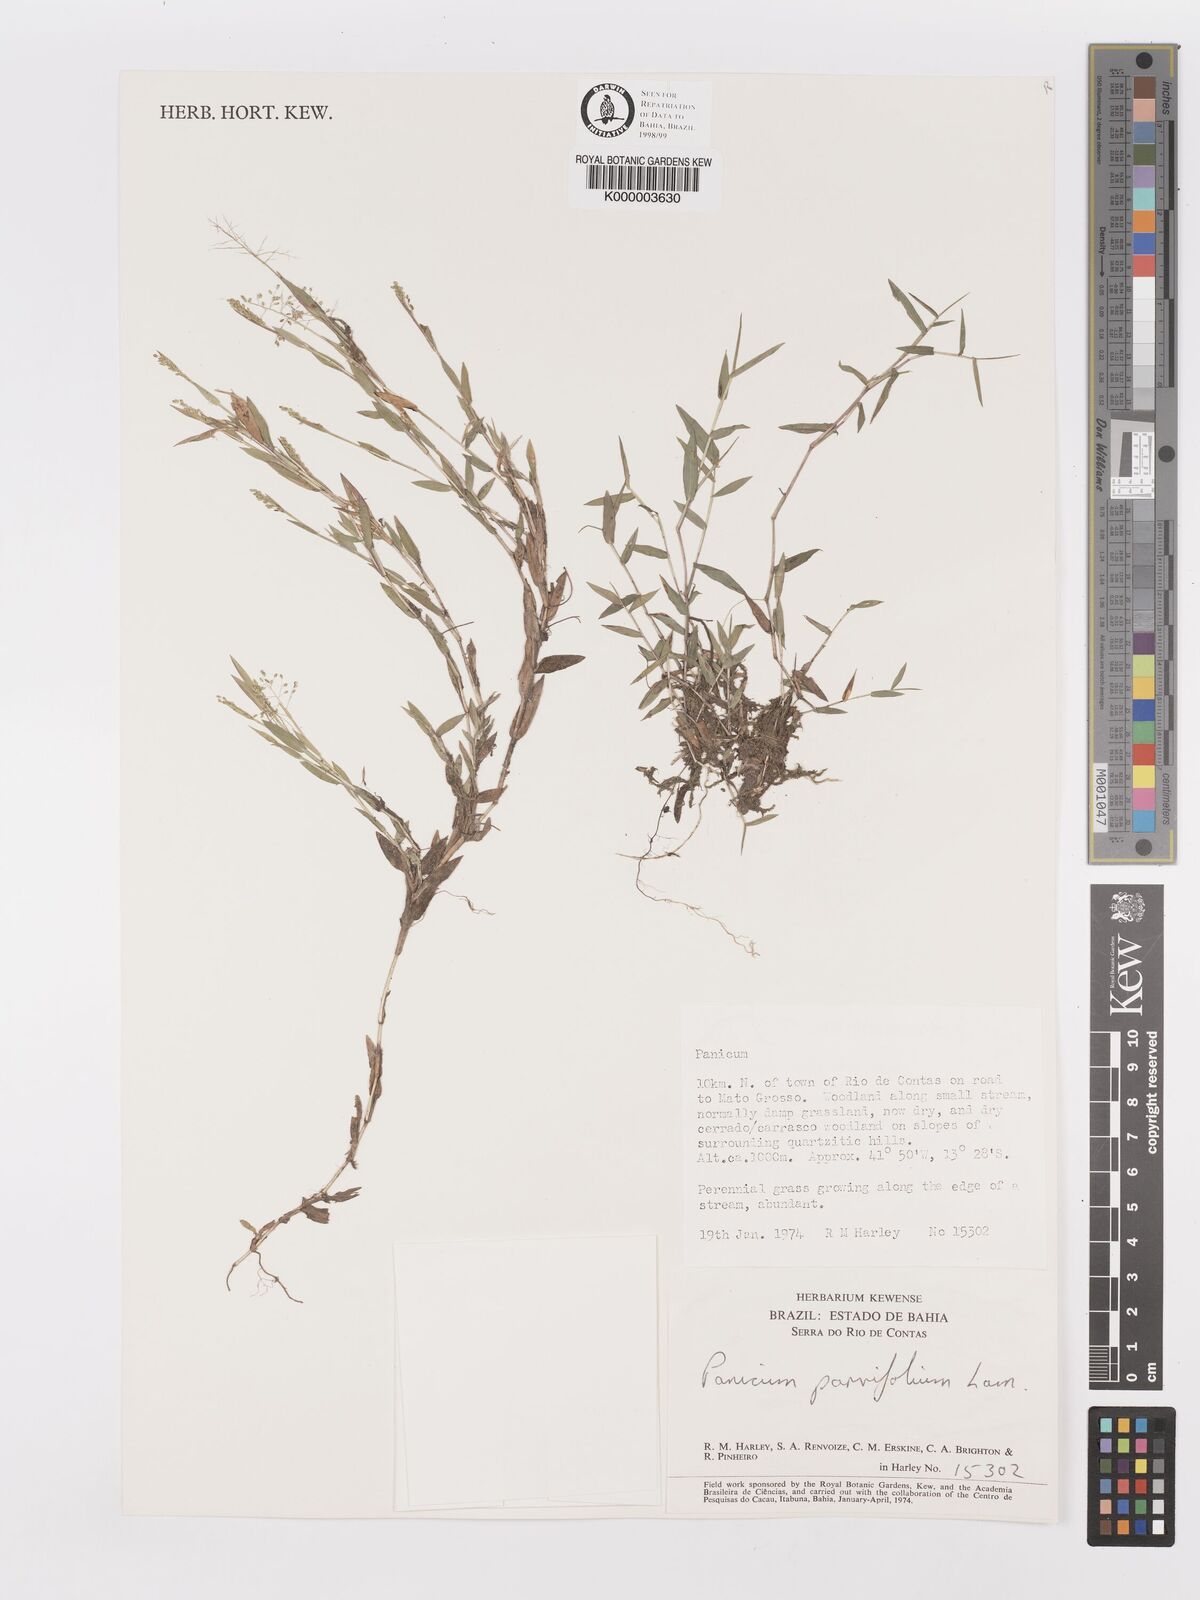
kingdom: Plantae
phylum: Tracheophyta
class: Liliopsida
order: Poales
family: Poaceae
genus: Trichanthecium
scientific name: Trichanthecium parvifolium
